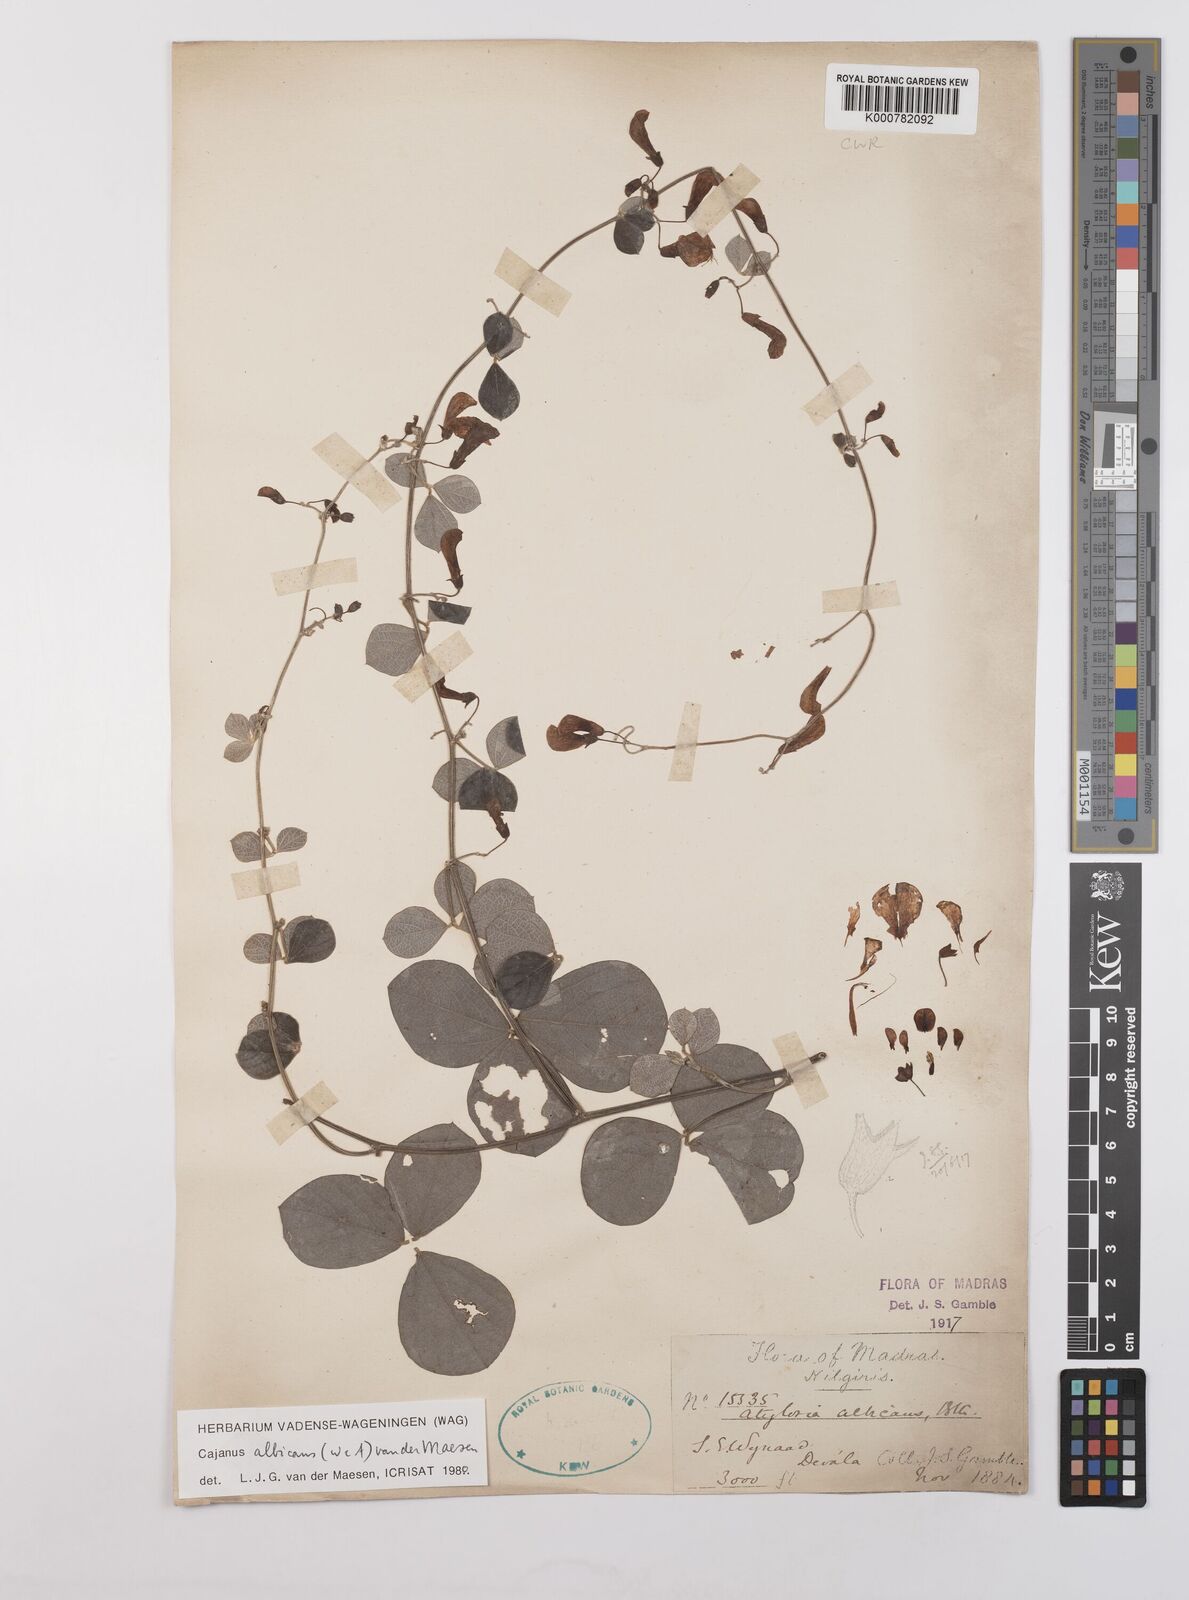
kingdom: Plantae
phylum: Tracheophyta
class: Magnoliopsida
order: Fabales
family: Fabaceae
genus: Cajanus
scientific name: Cajanus albicans
